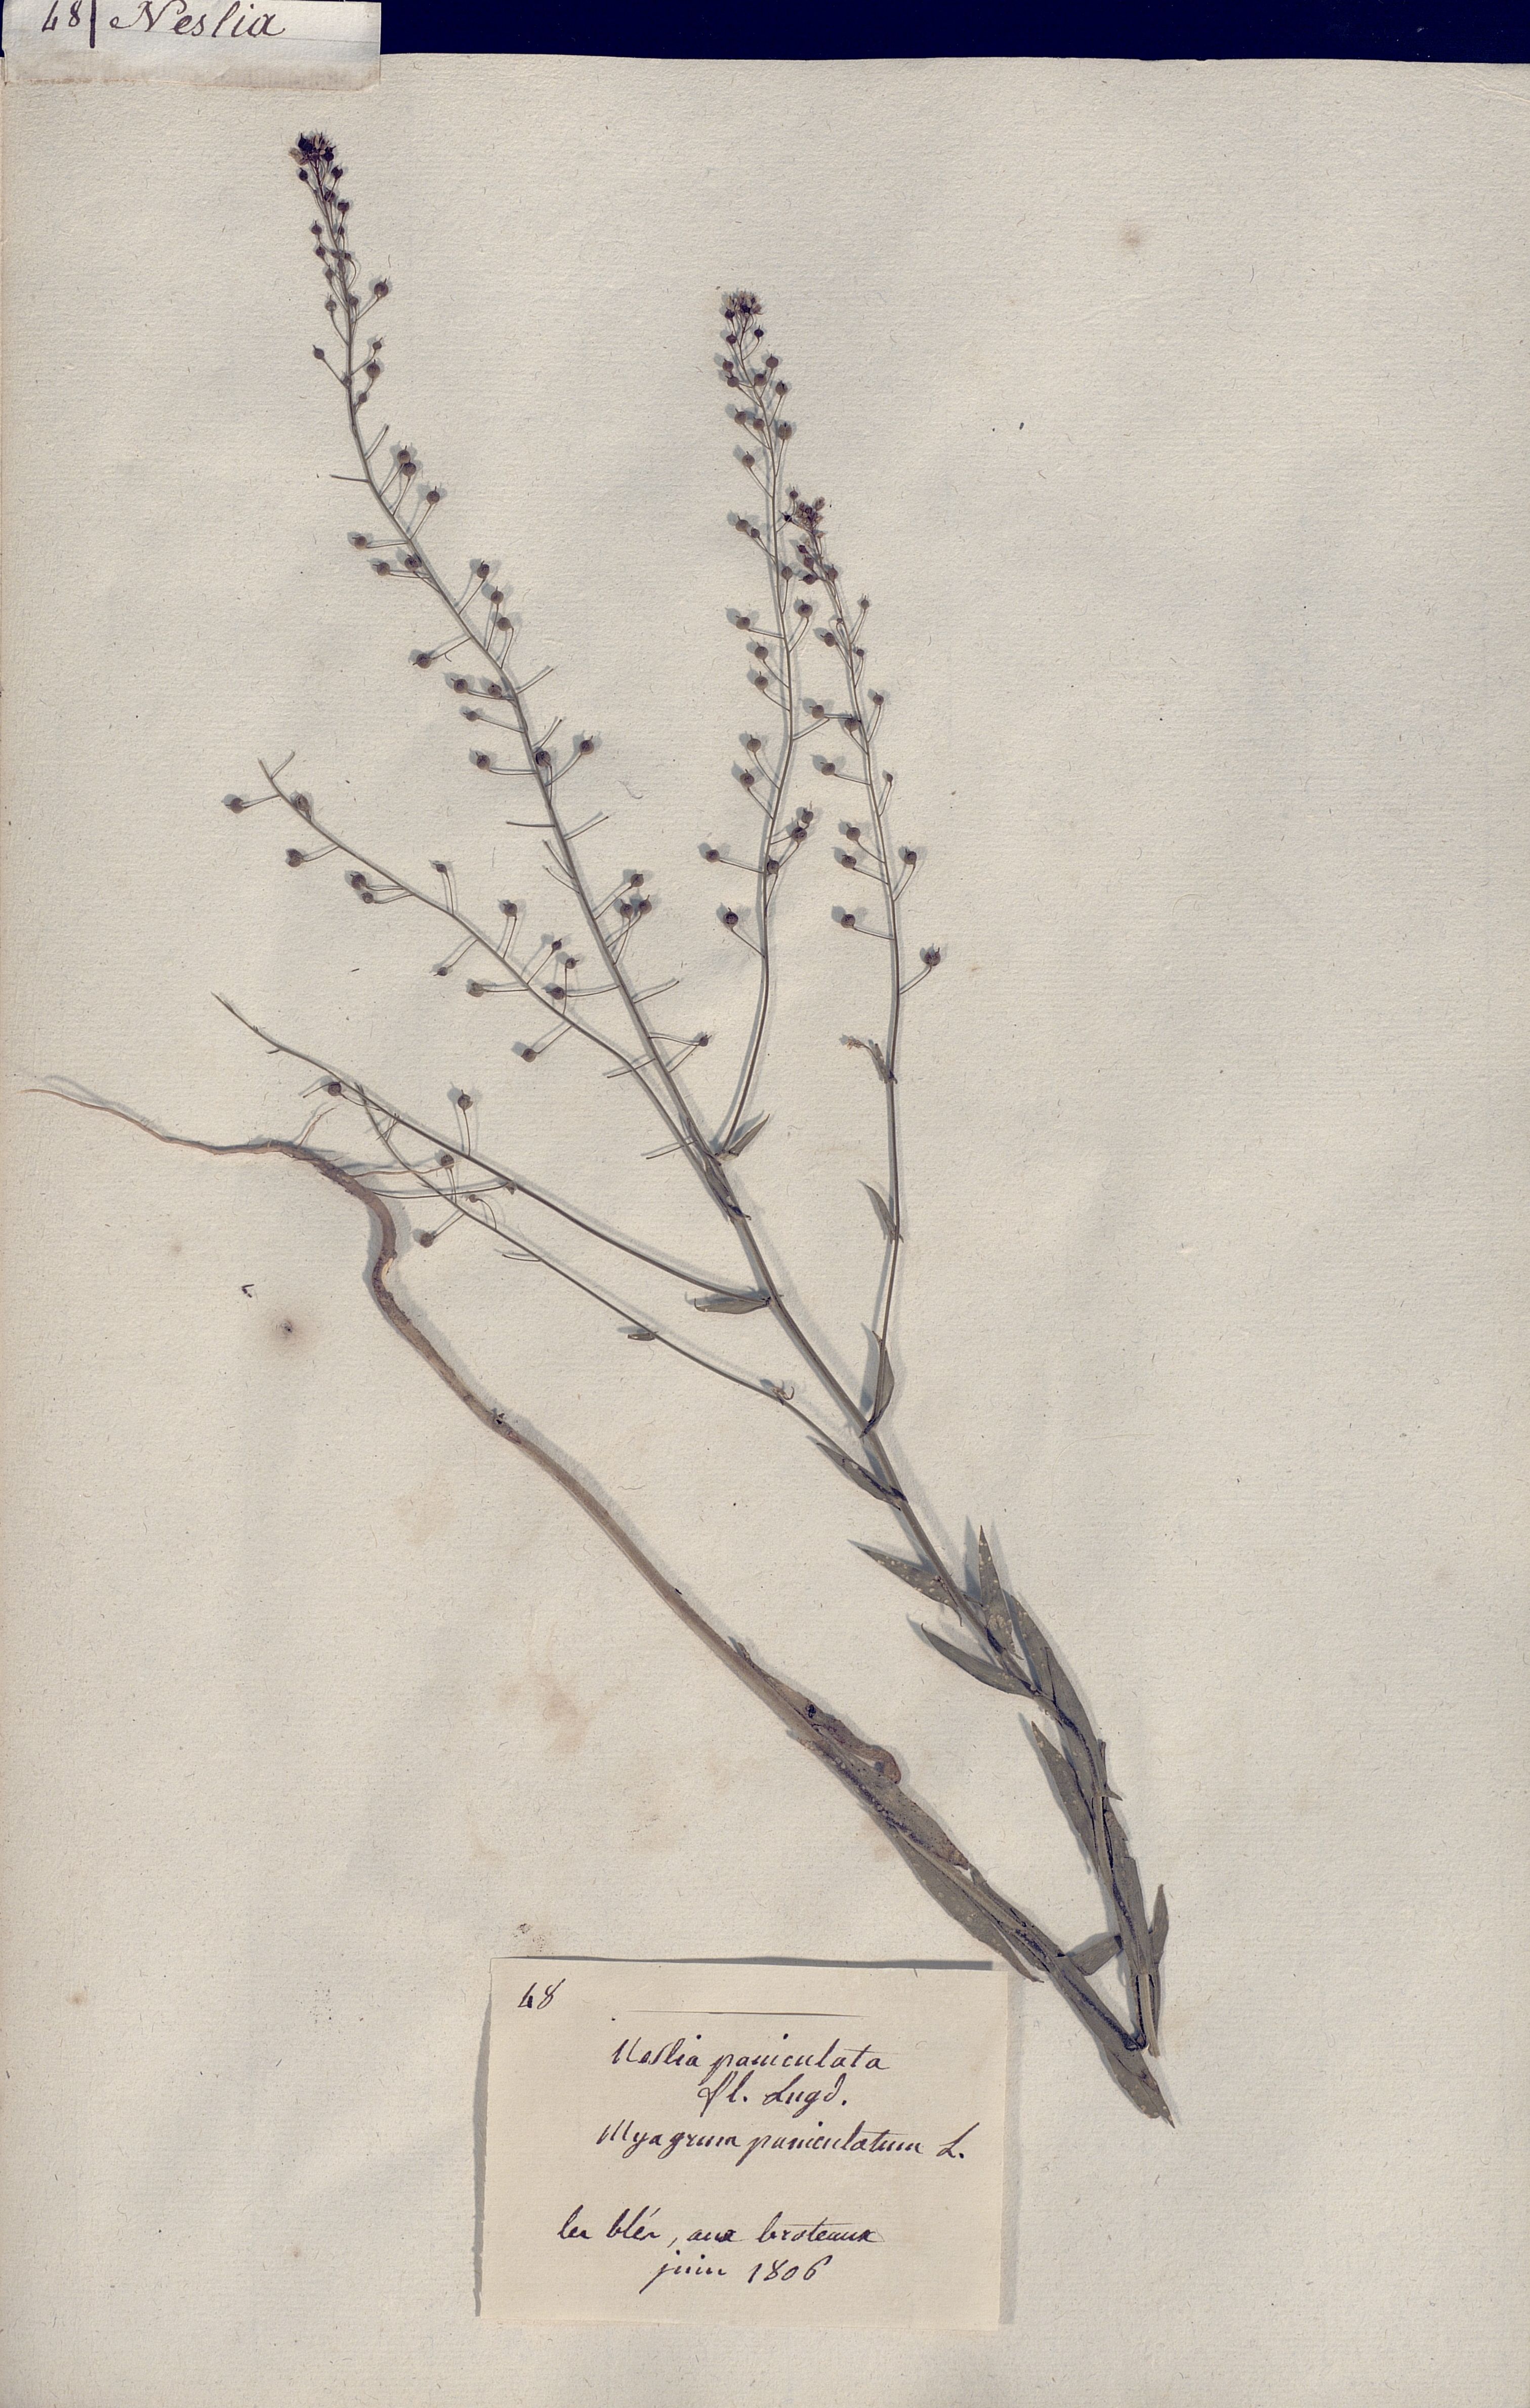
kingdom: Plantae
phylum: Tracheophyta
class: Magnoliopsida
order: Brassicales
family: Brassicaceae
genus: Neslia
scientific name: Neslia paniculata
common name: Ball mustard
